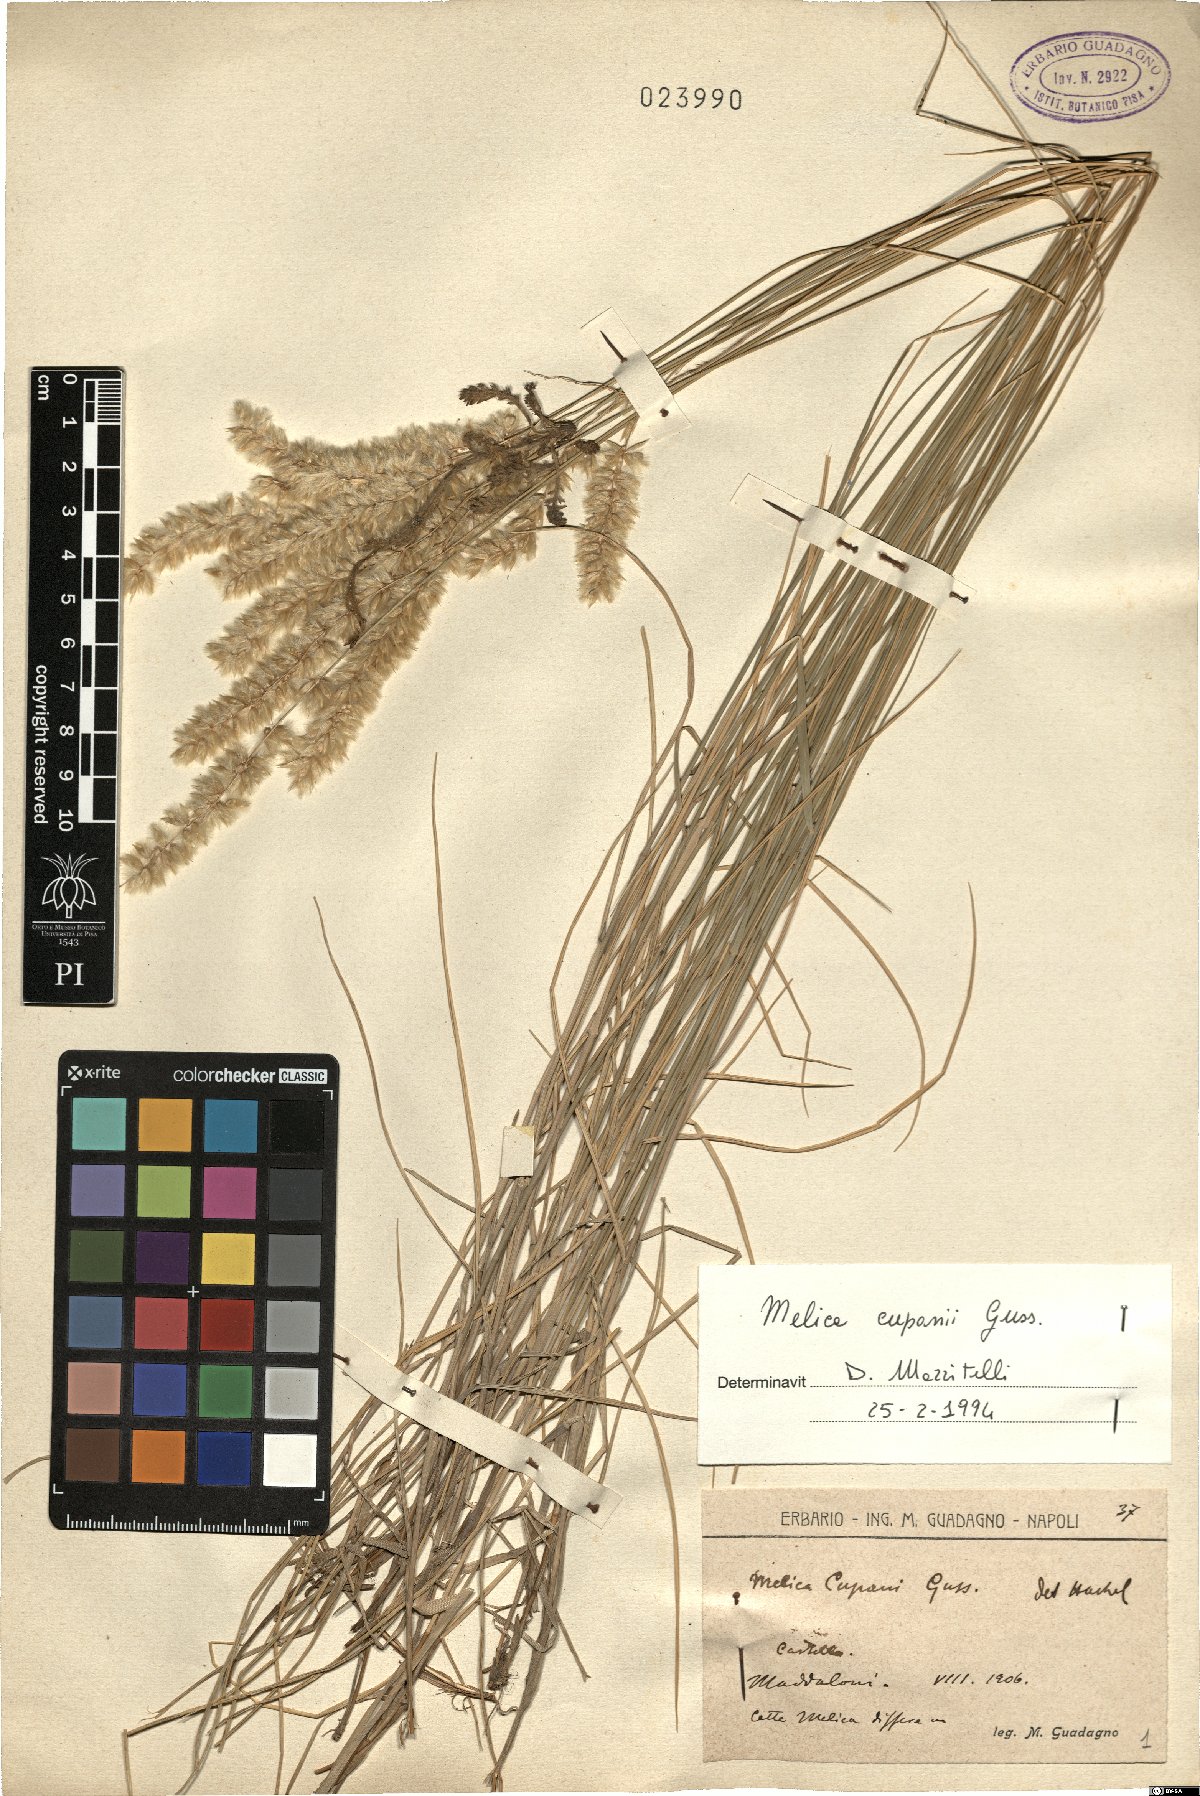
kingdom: Plantae
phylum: Tracheophyta
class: Liliopsida
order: Poales
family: Poaceae
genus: Melica
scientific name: Melica cupani
